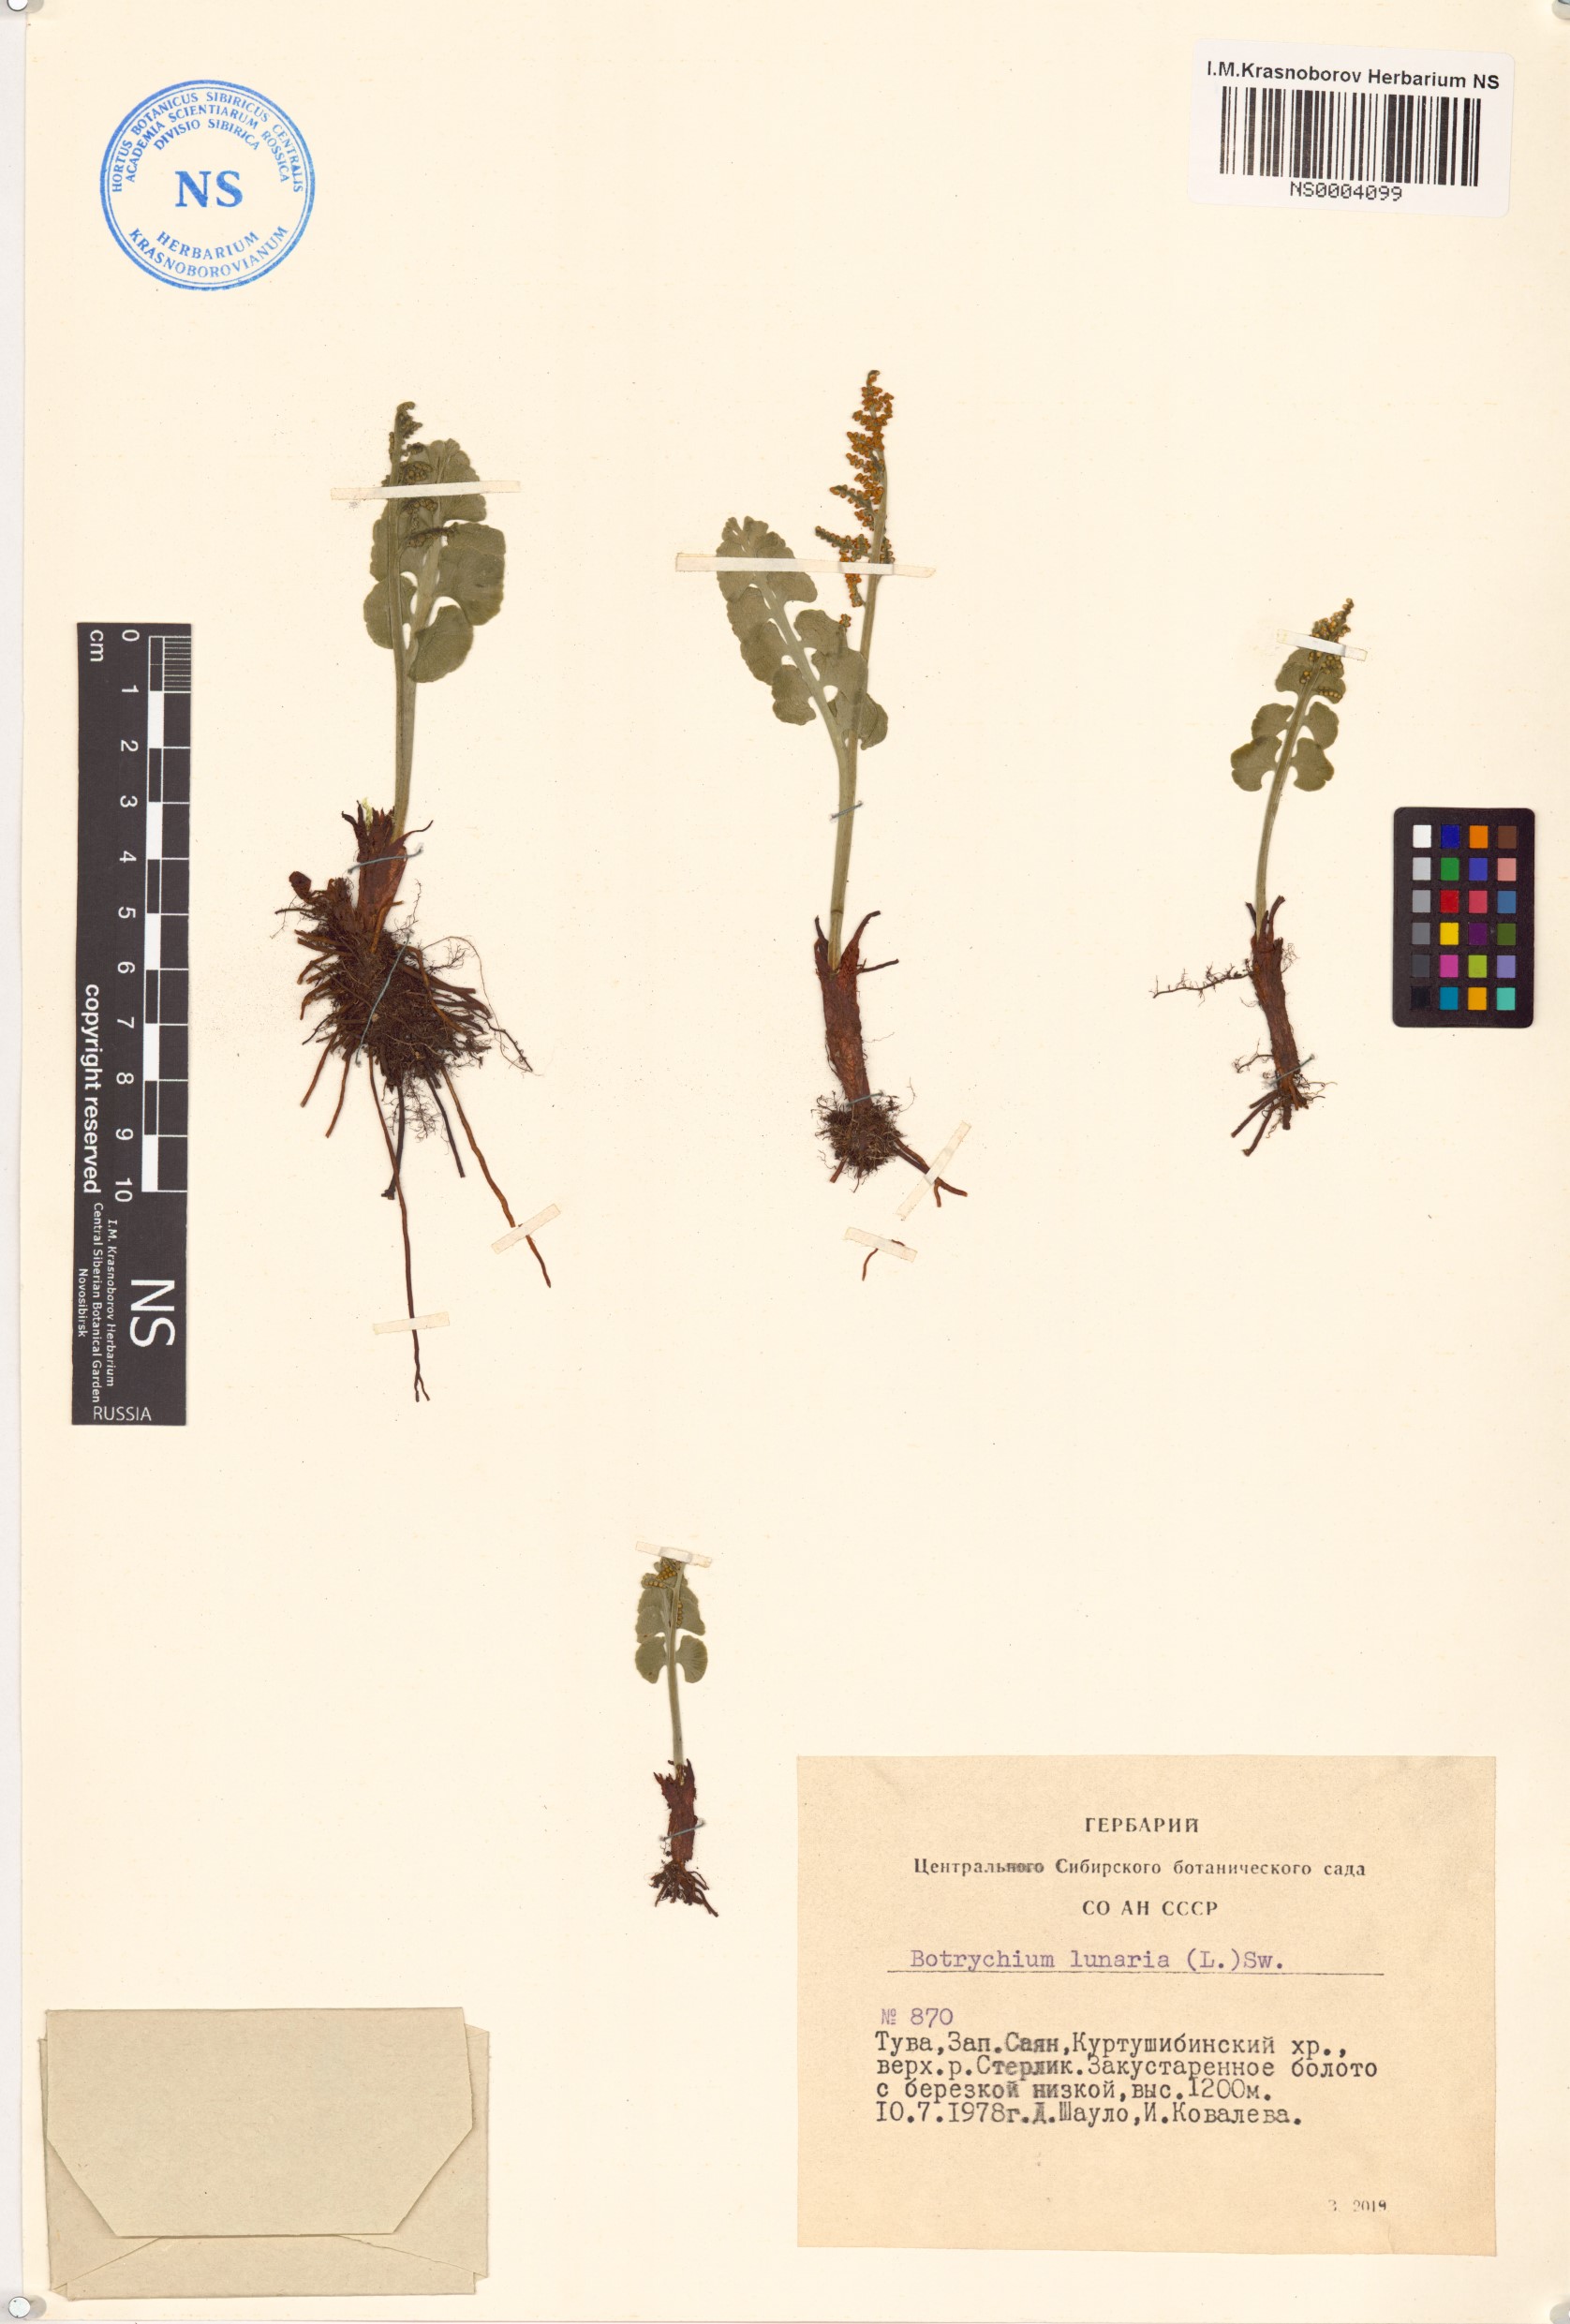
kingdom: Plantae
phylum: Tracheophyta
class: Polypodiopsida
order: Ophioglossales
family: Ophioglossaceae
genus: Botrychium
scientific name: Botrychium lunaria
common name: Moonwort
